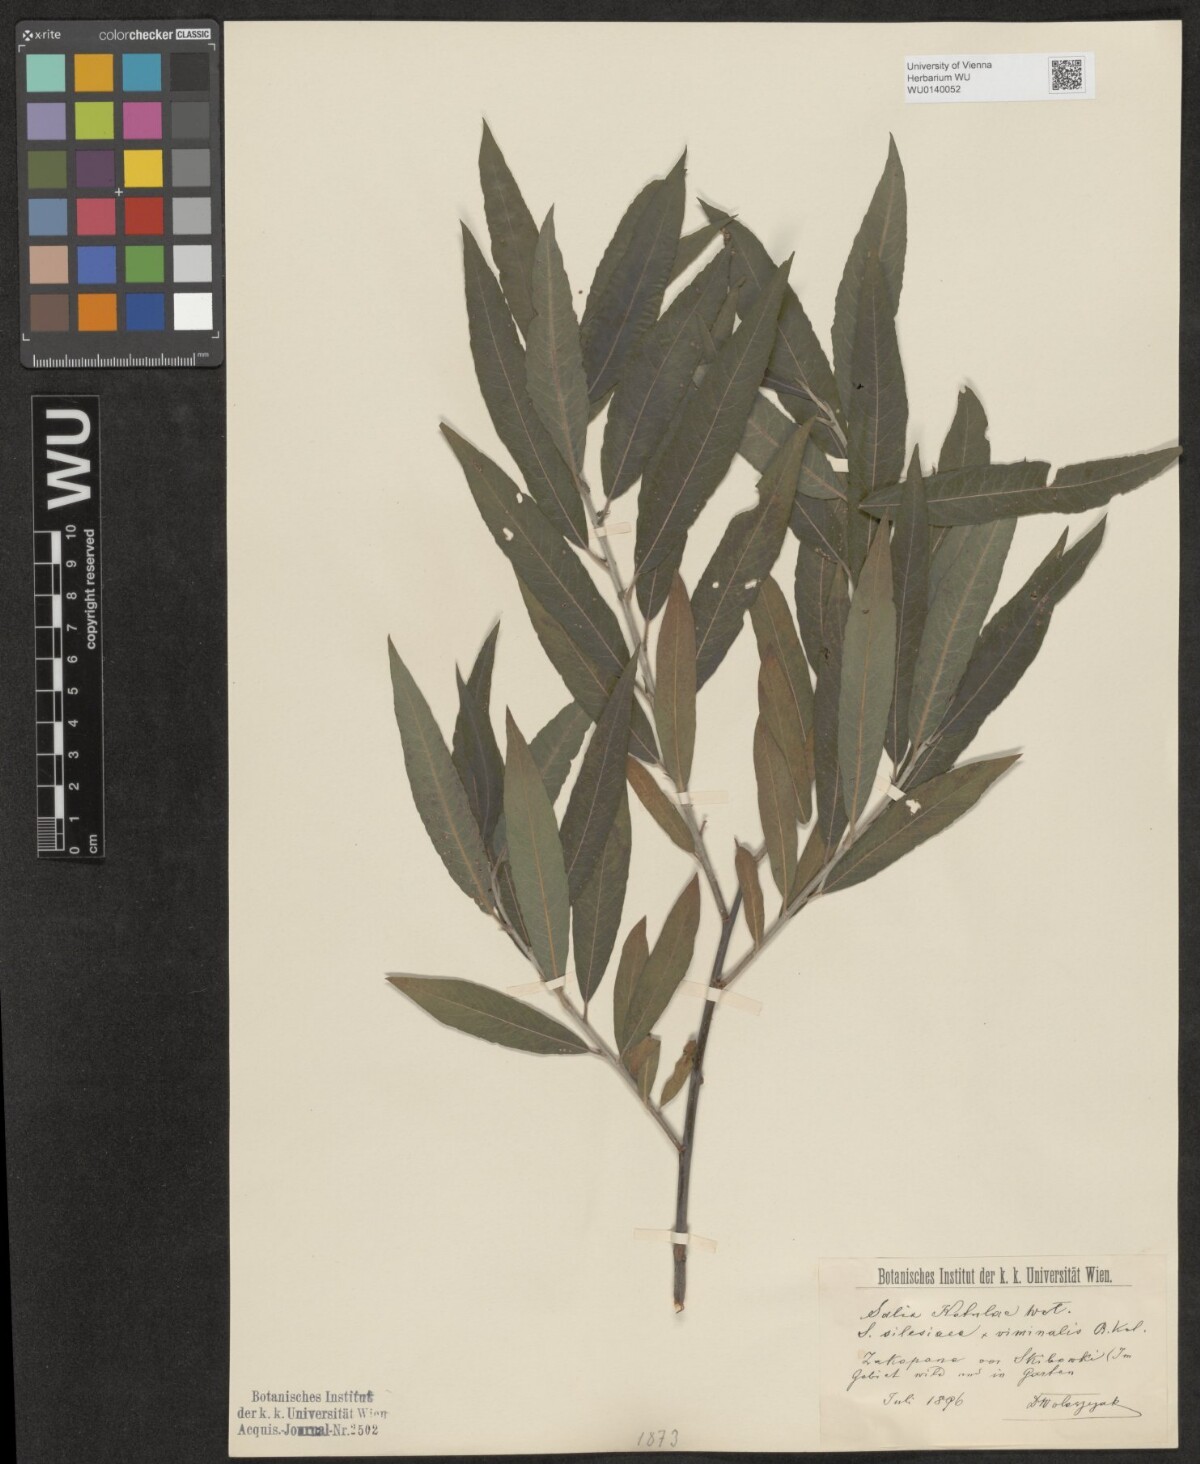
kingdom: Plantae
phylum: Tracheophyta
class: Magnoliopsida
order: Malpighiales
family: Salicaceae
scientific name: Salicaceae
